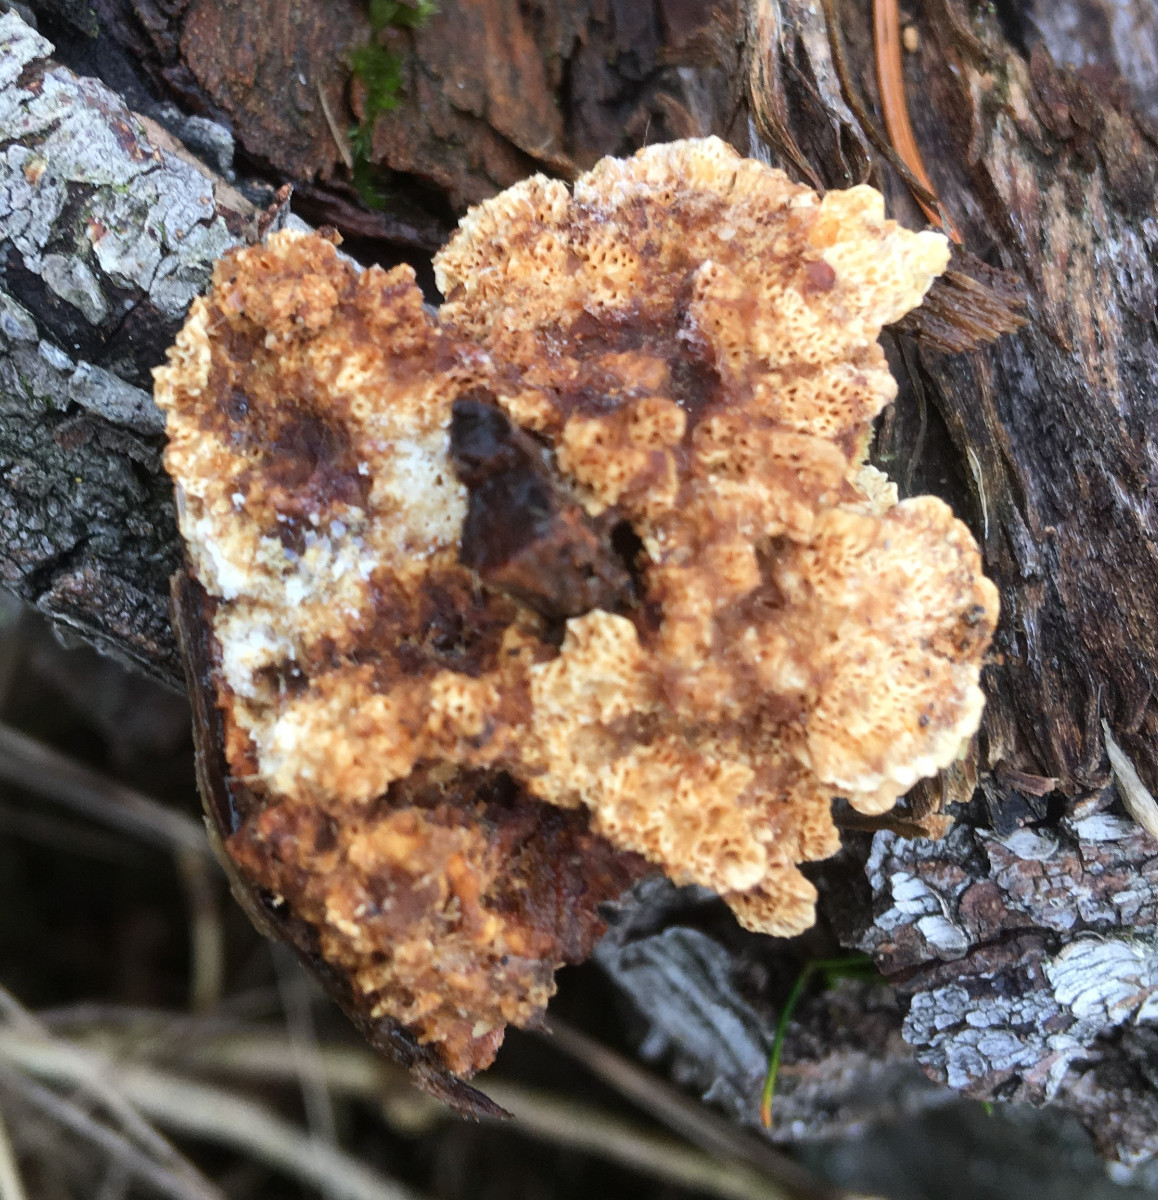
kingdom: Fungi
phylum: Basidiomycota
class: Agaricomycetes
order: Polyporales
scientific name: Polyporales
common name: poresvampordenen
